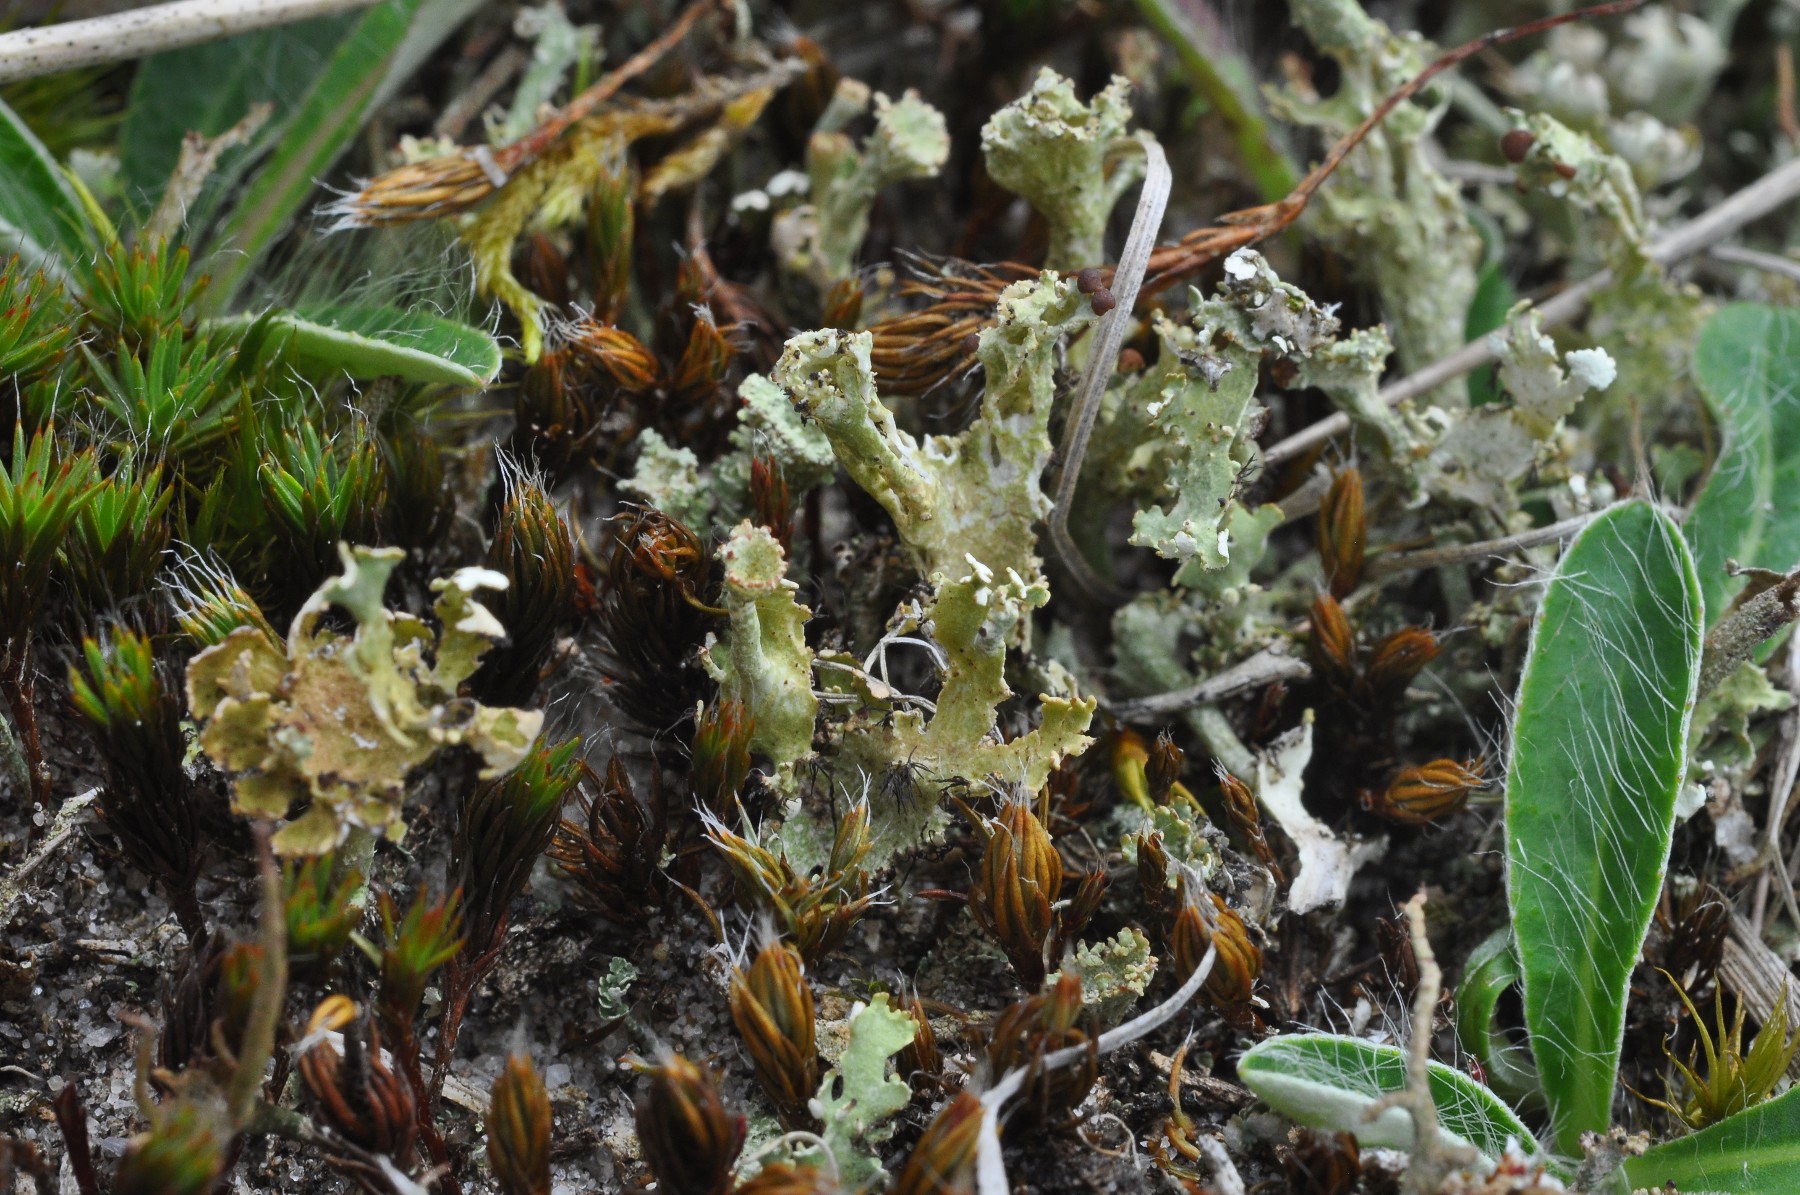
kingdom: Fungi
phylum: Ascomycota
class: Lecanoromycetes
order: Lecanorales
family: Cladoniaceae
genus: Cladonia
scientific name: Cladonia foliacea
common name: fliget bægerlav
